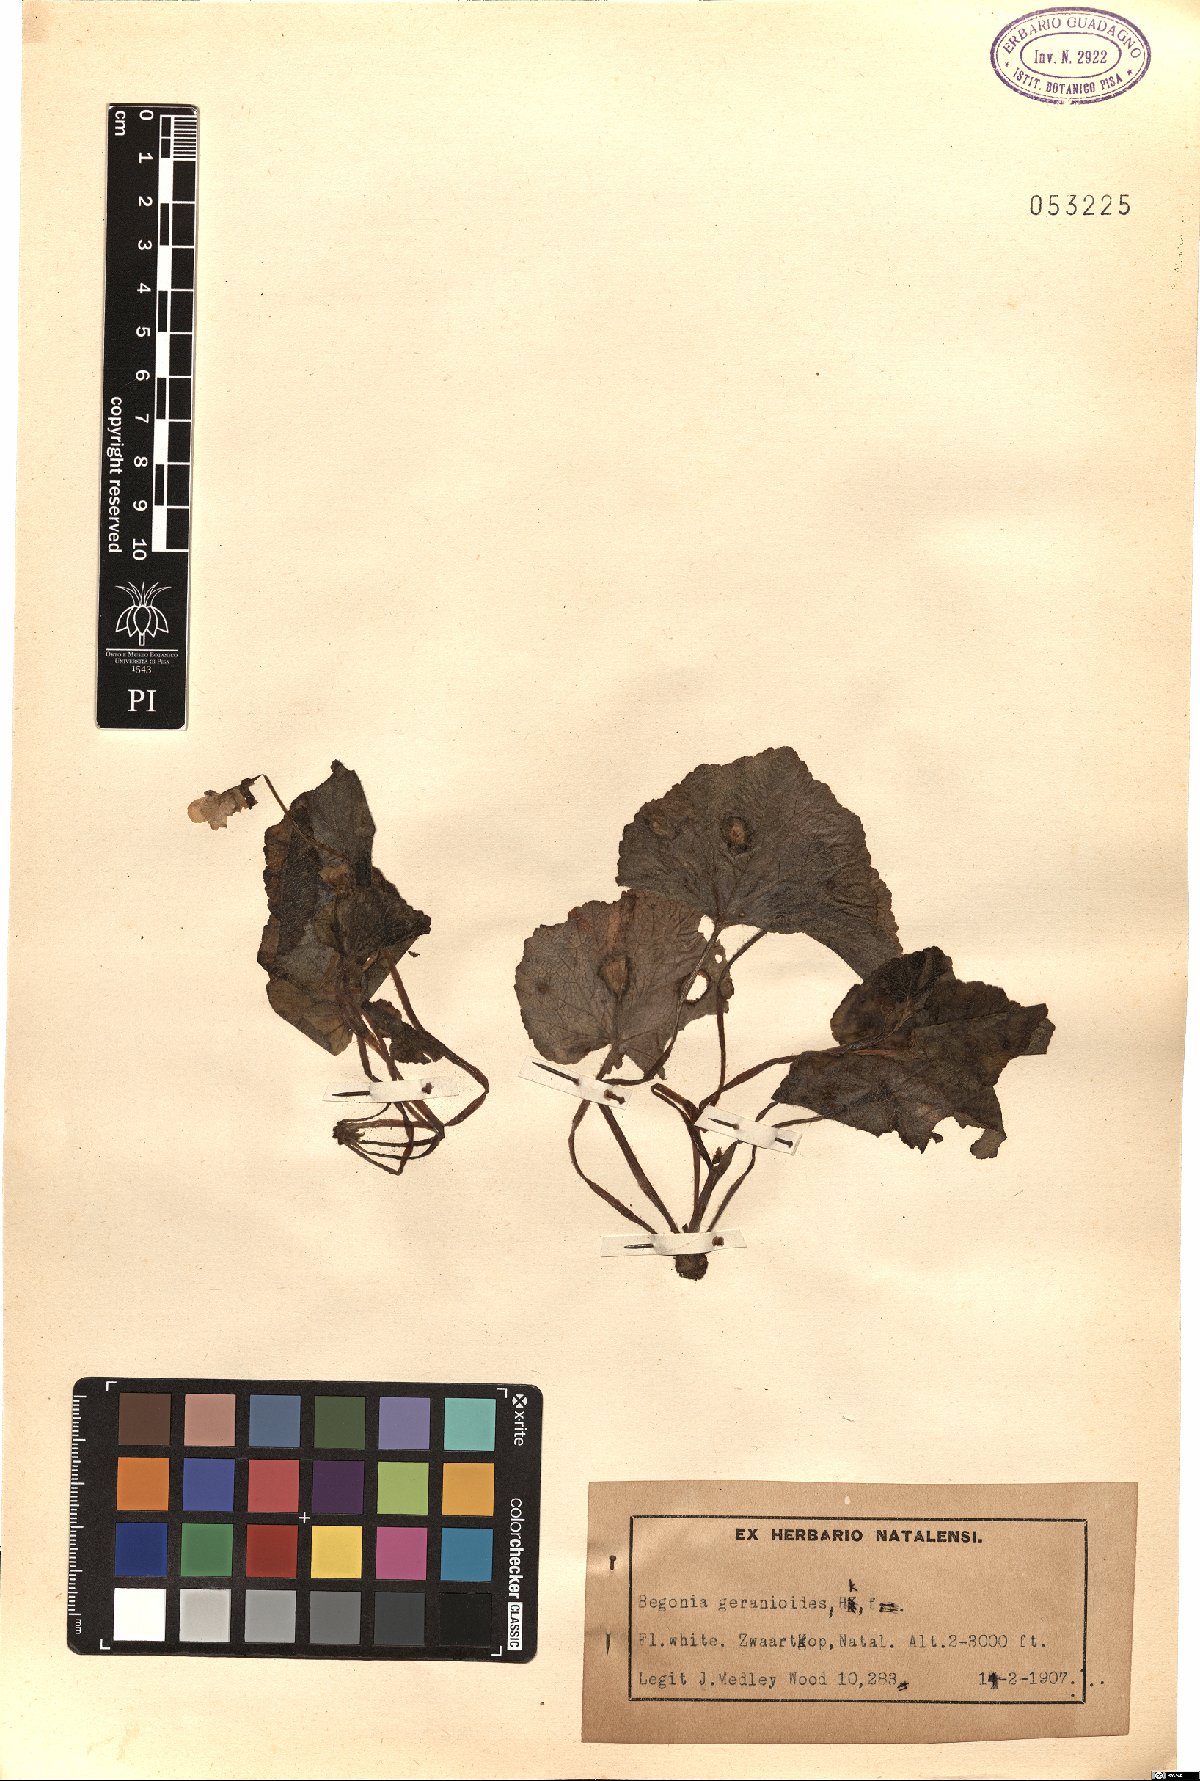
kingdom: Plantae
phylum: Tracheophyta
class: Magnoliopsida
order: Cucurbitales
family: Begoniaceae
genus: Begonia
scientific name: Begonia geranioides
